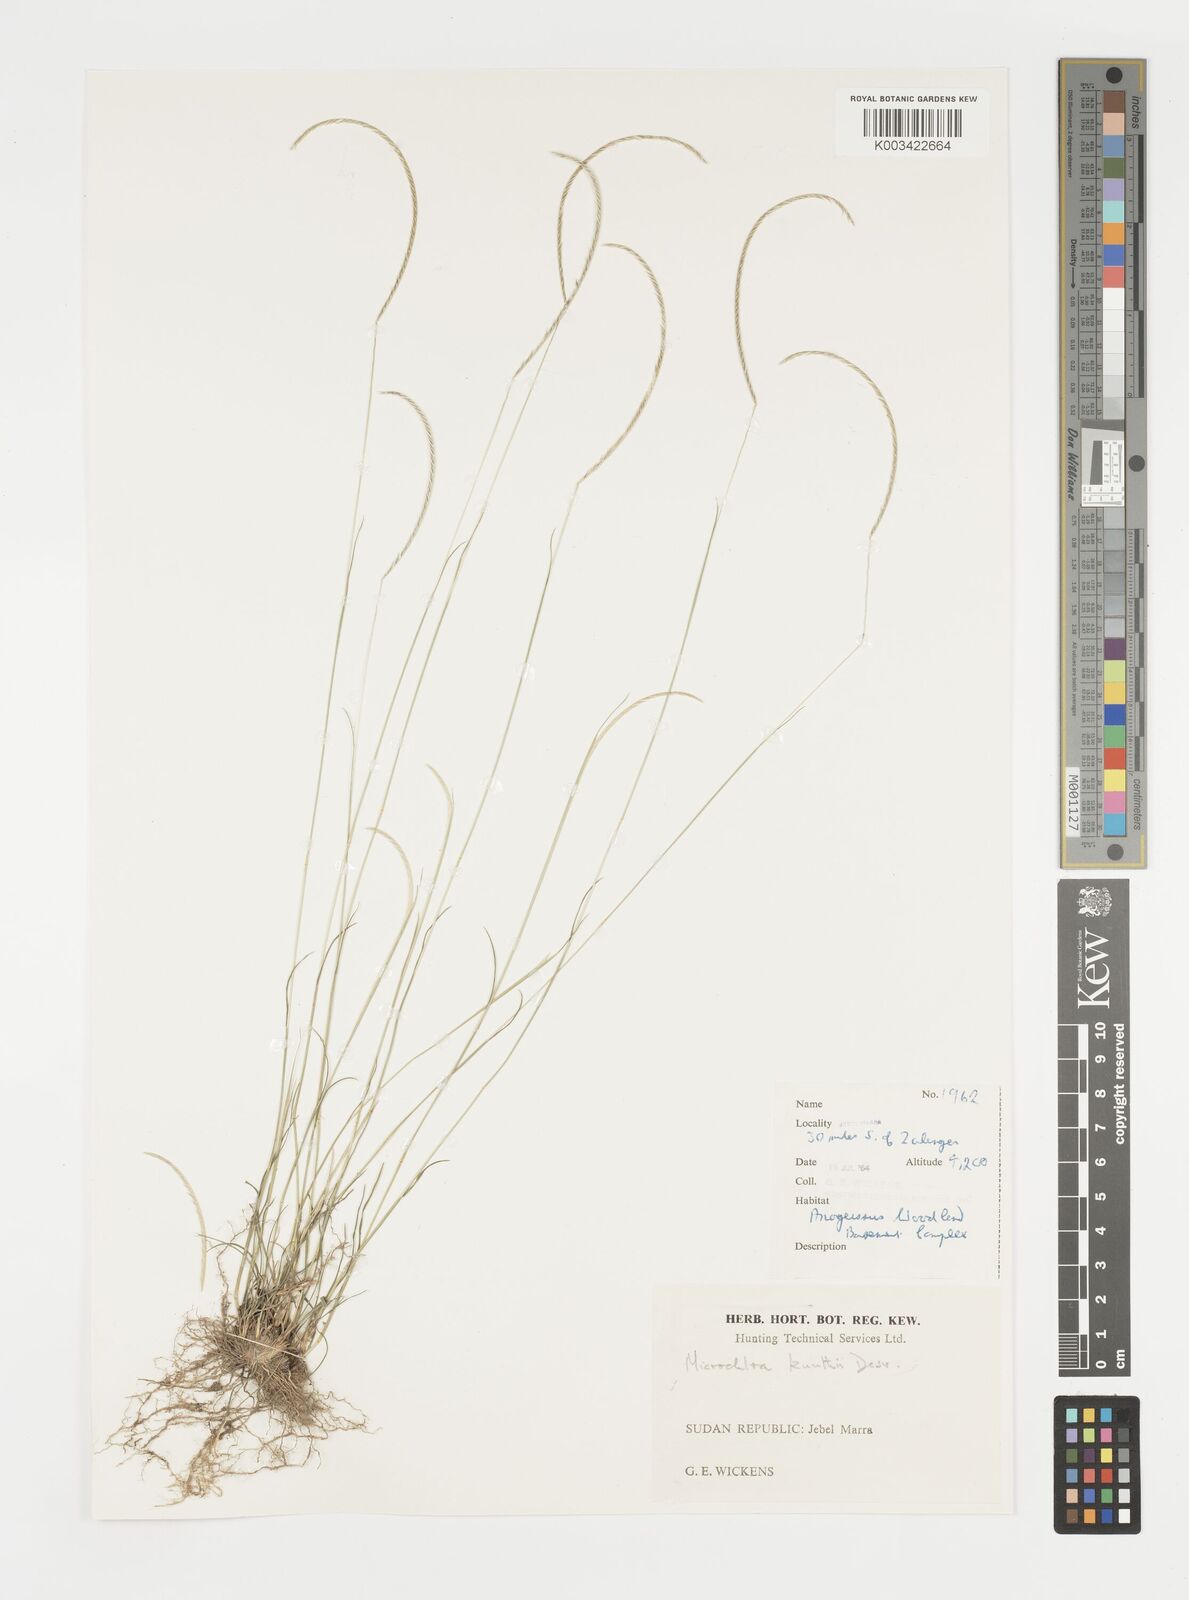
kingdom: Plantae
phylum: Tracheophyta
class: Liliopsida
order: Poales
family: Poaceae
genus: Microchloa
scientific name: Microchloa kunthii
